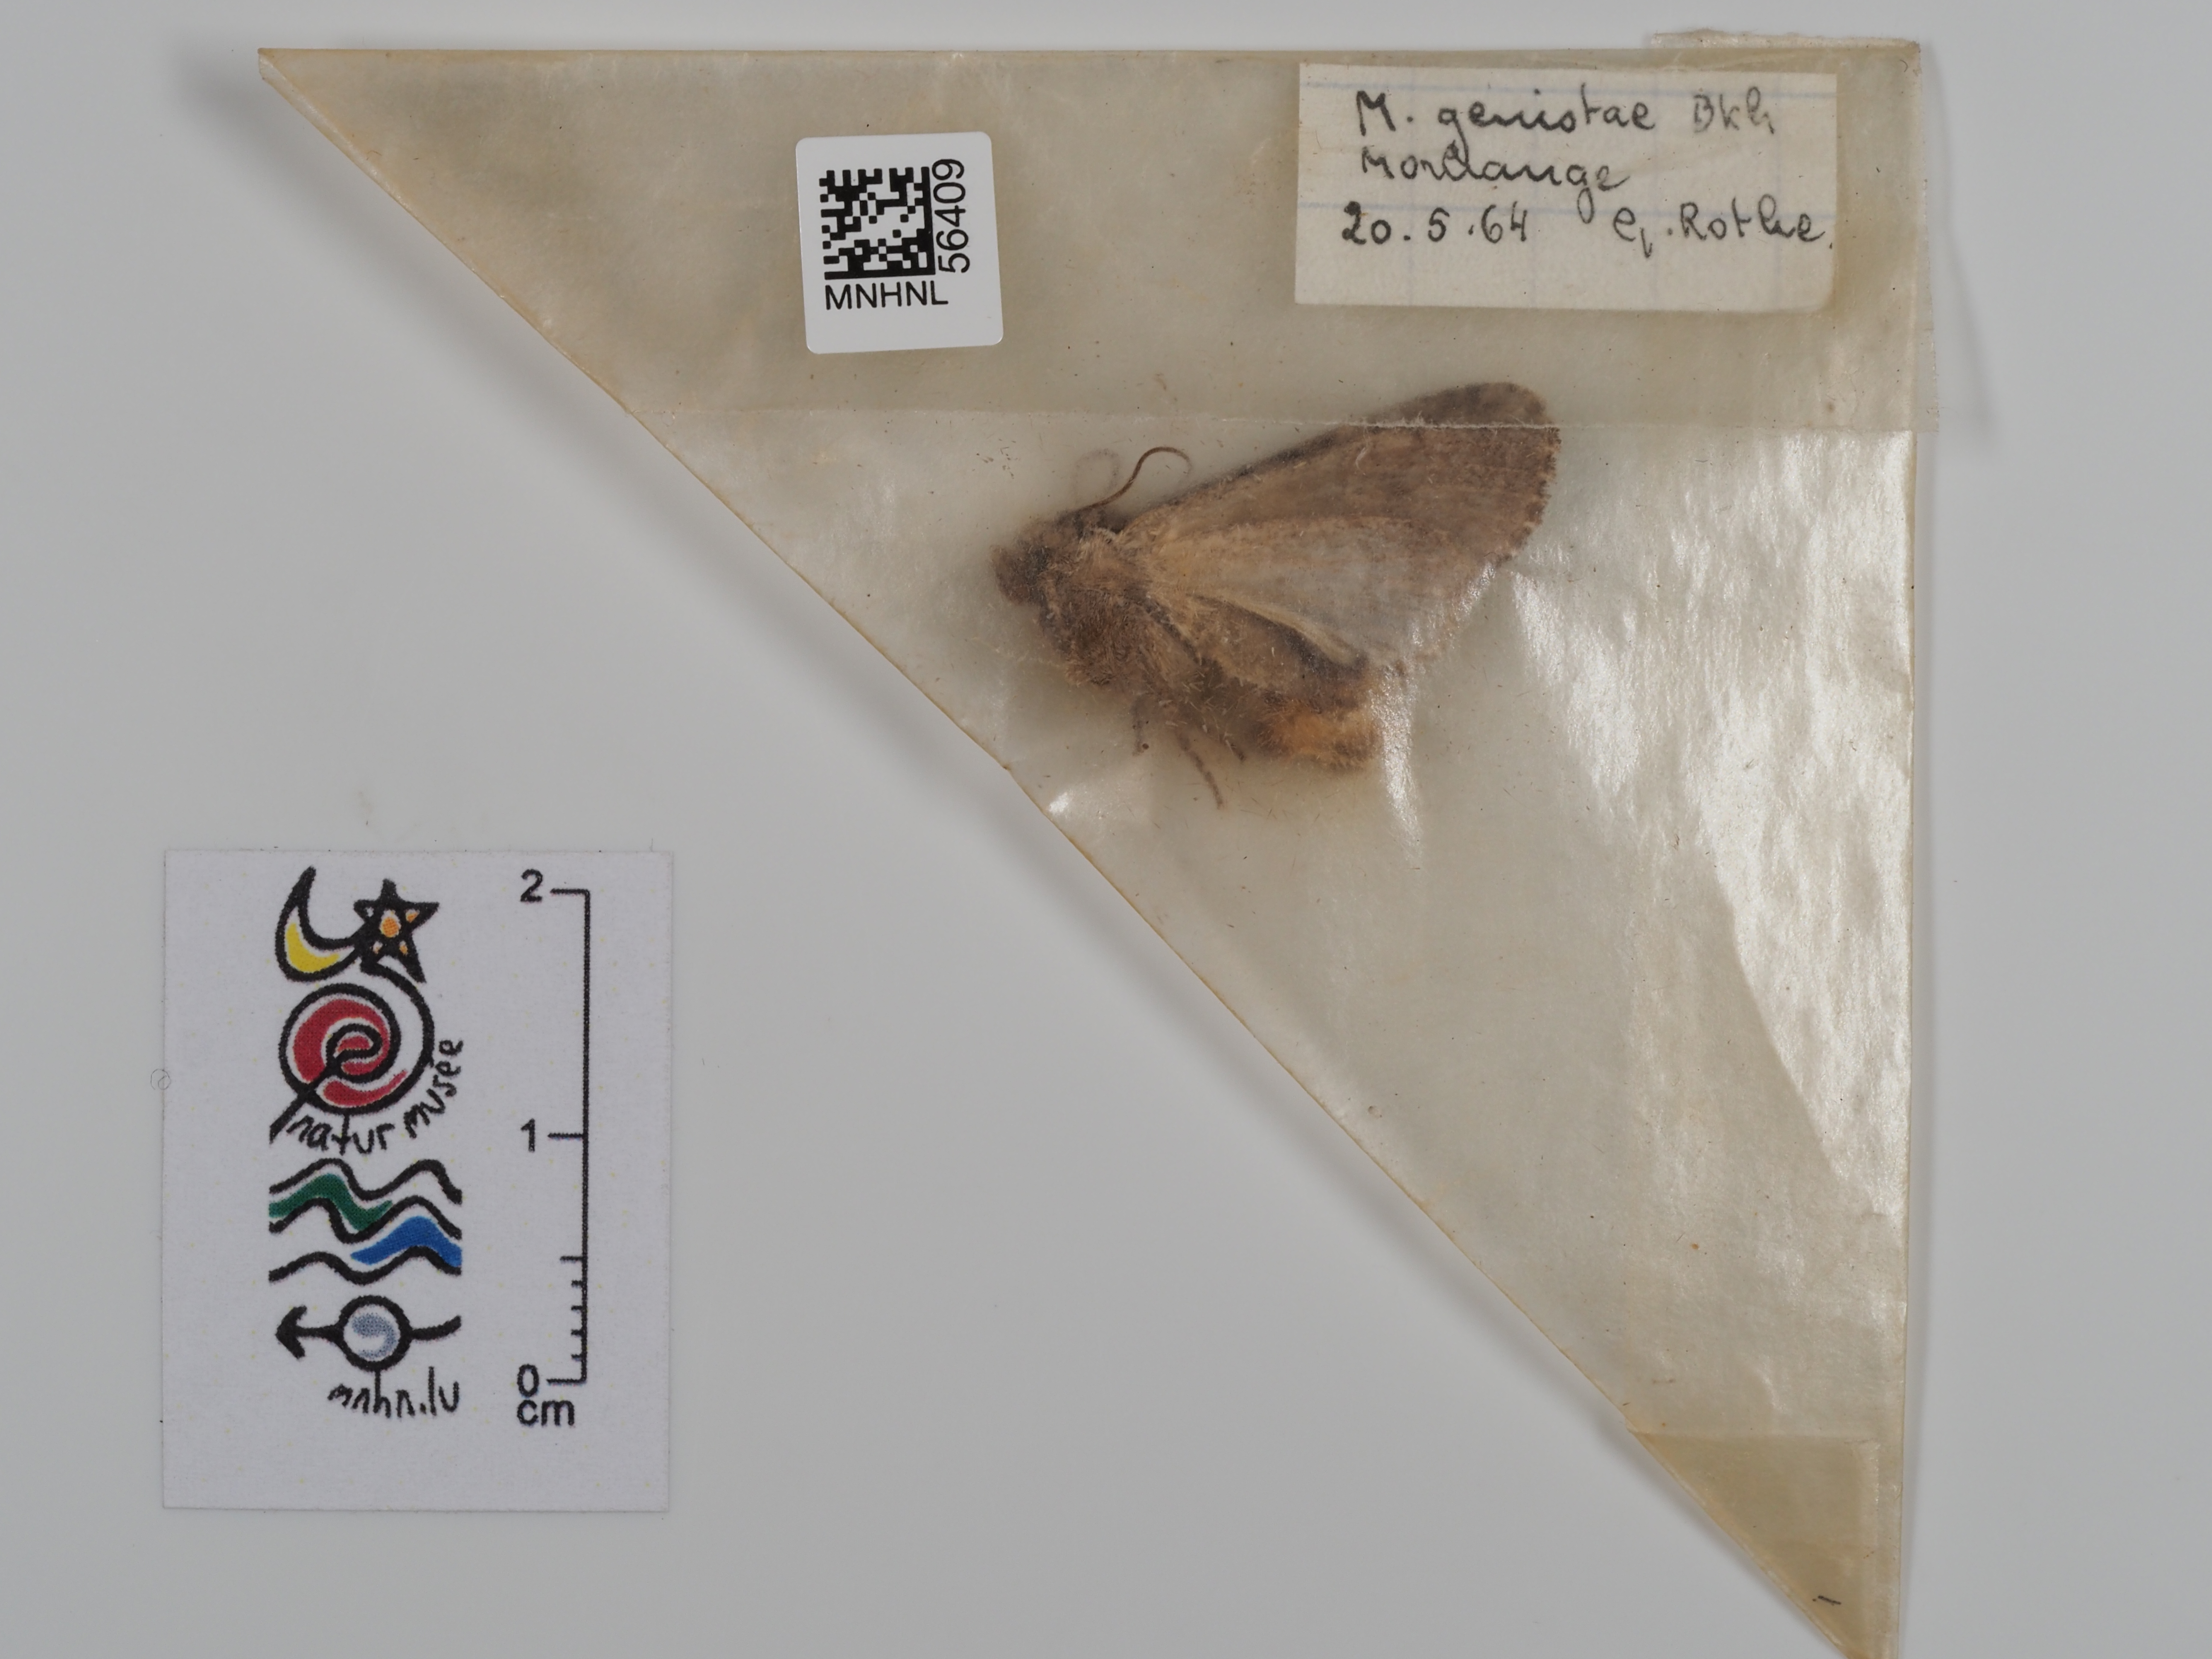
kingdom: Animalia
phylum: Arthropoda
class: Insecta
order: Lepidoptera
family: Noctuidae
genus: Lacanobia
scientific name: Lacanobia w-latinum
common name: Light brocade
